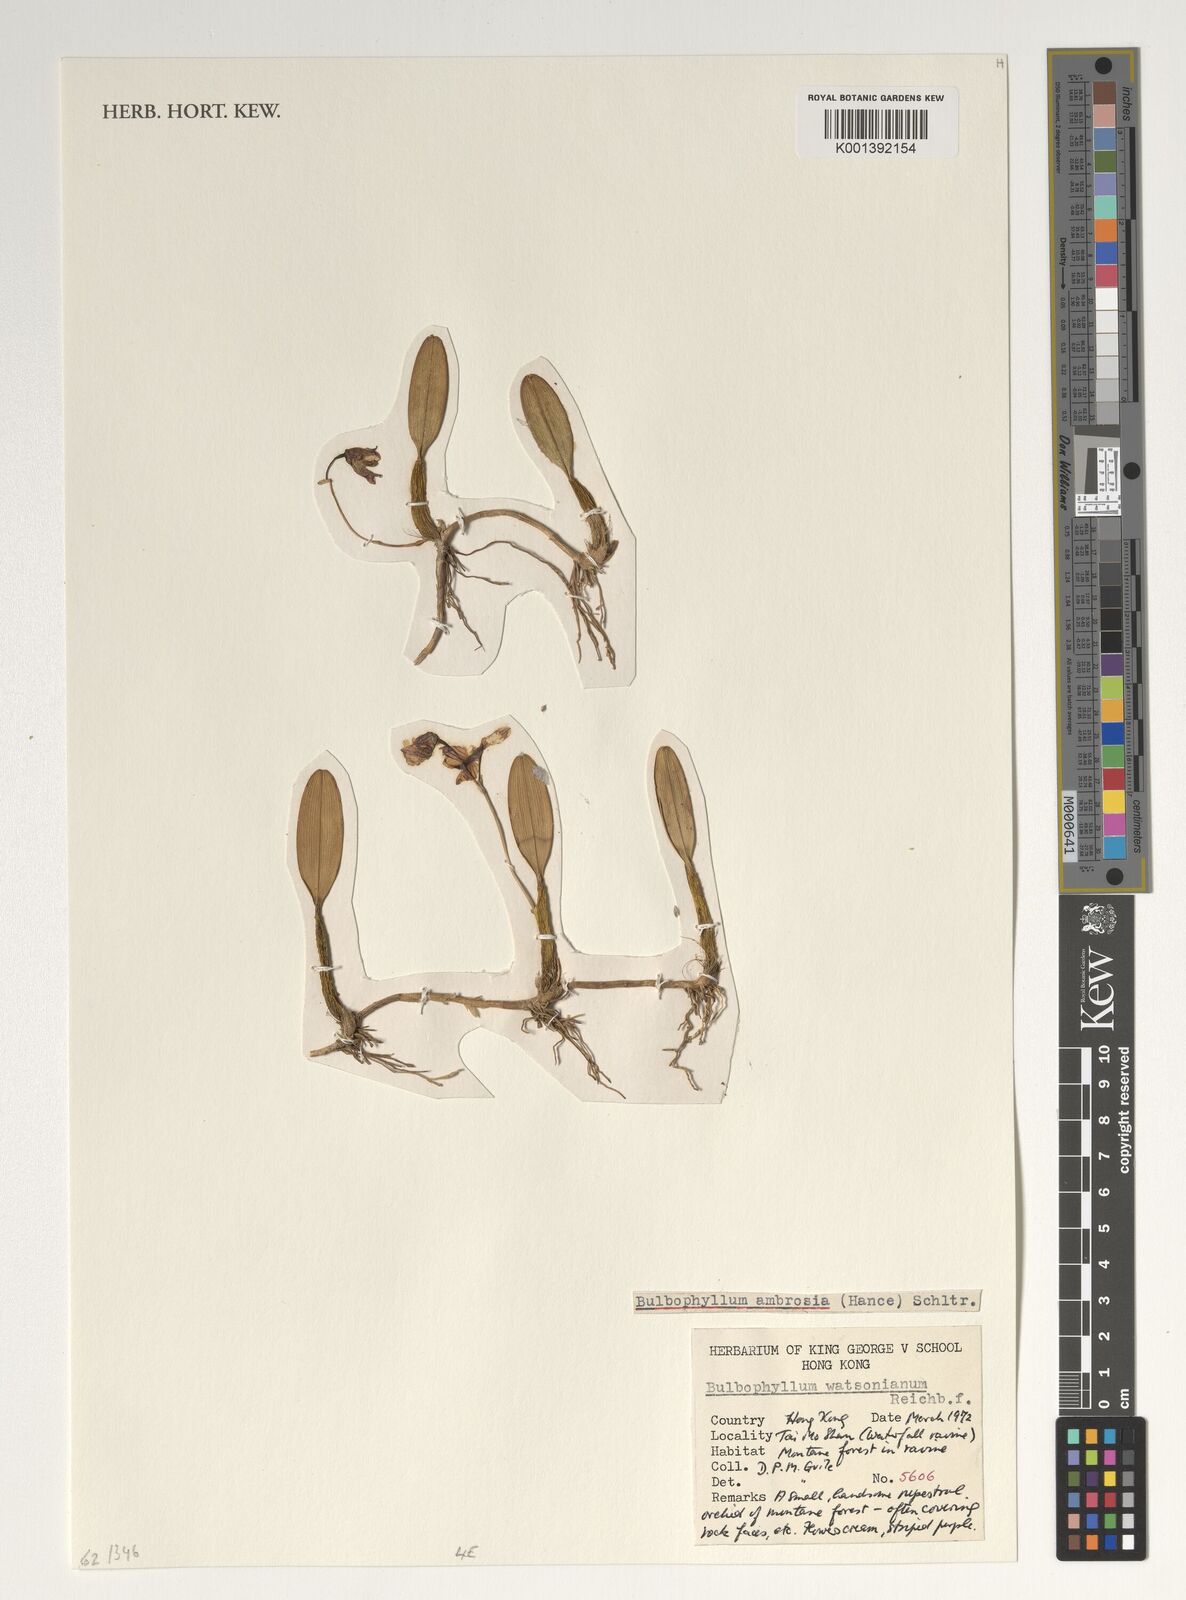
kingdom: Plantae
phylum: Tracheophyta
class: Liliopsida
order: Asparagales
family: Orchidaceae
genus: Bulbophyllum
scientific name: Bulbophyllum ambrosia
